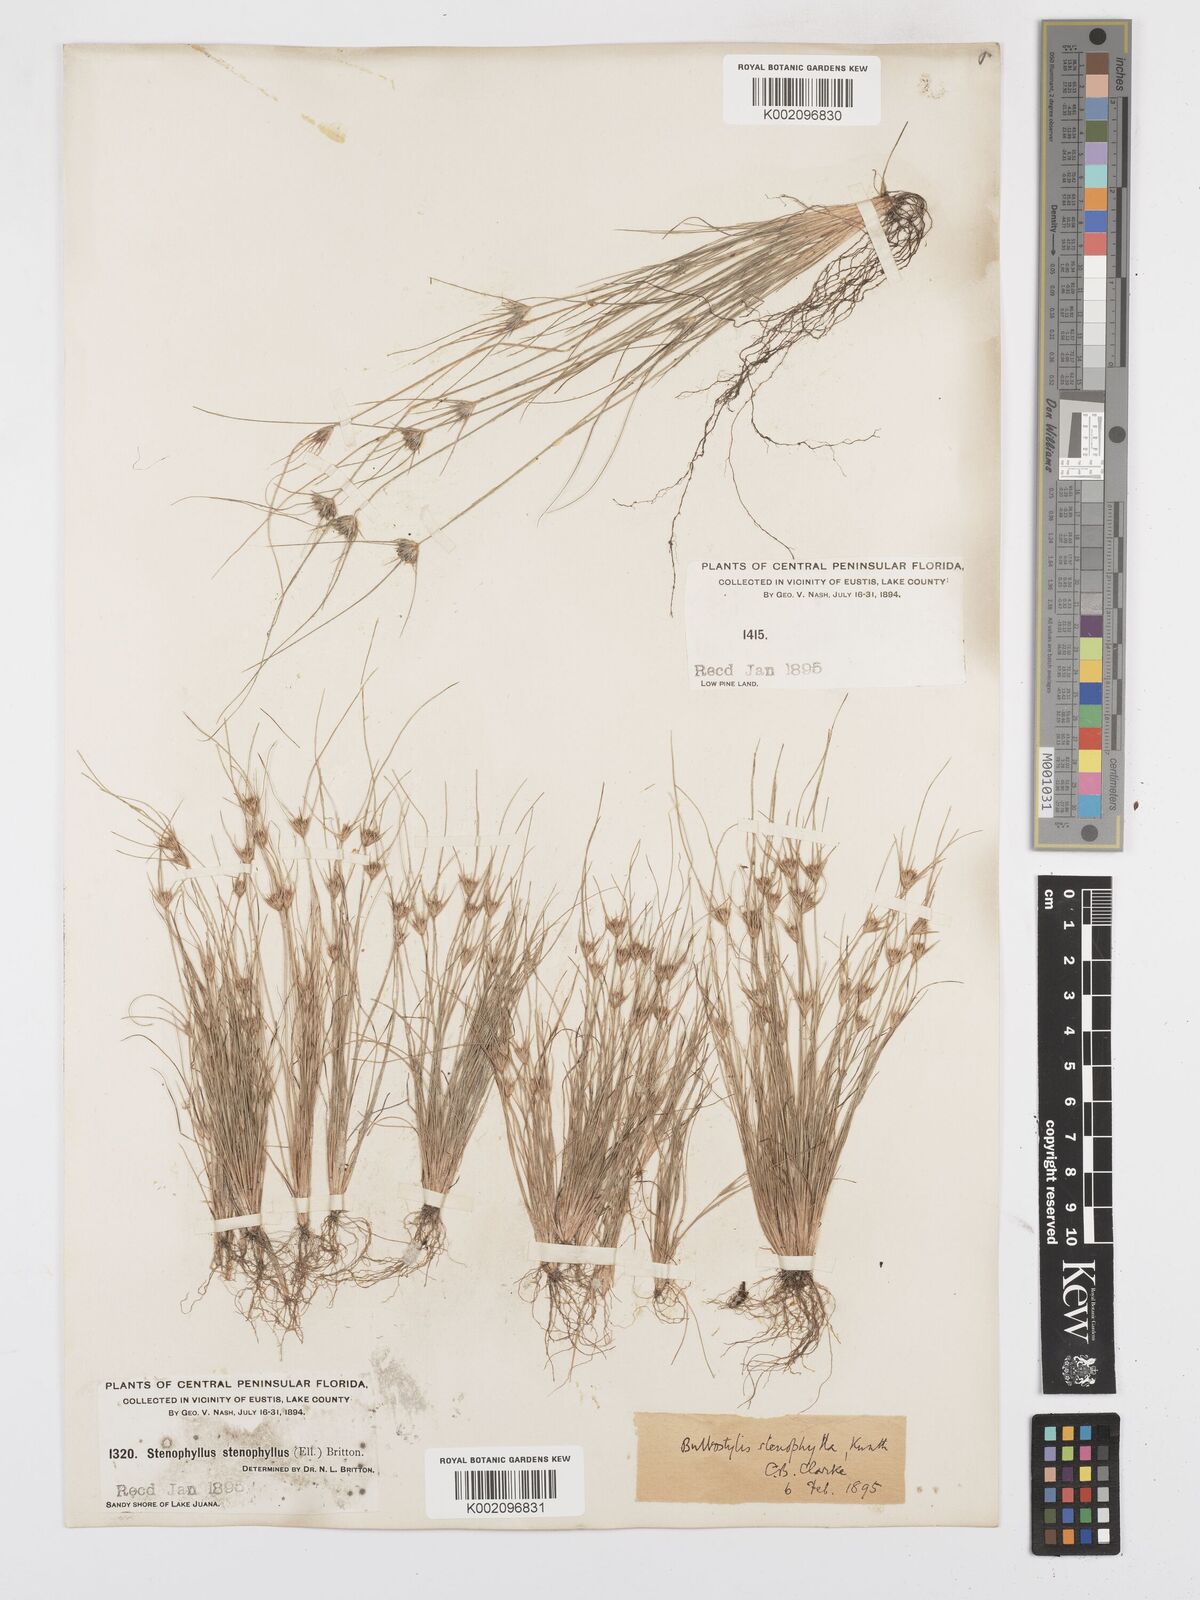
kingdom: Plantae
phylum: Tracheophyta
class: Liliopsida
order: Poales
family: Cyperaceae
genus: Bulbostylis
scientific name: Bulbostylis rarissima
